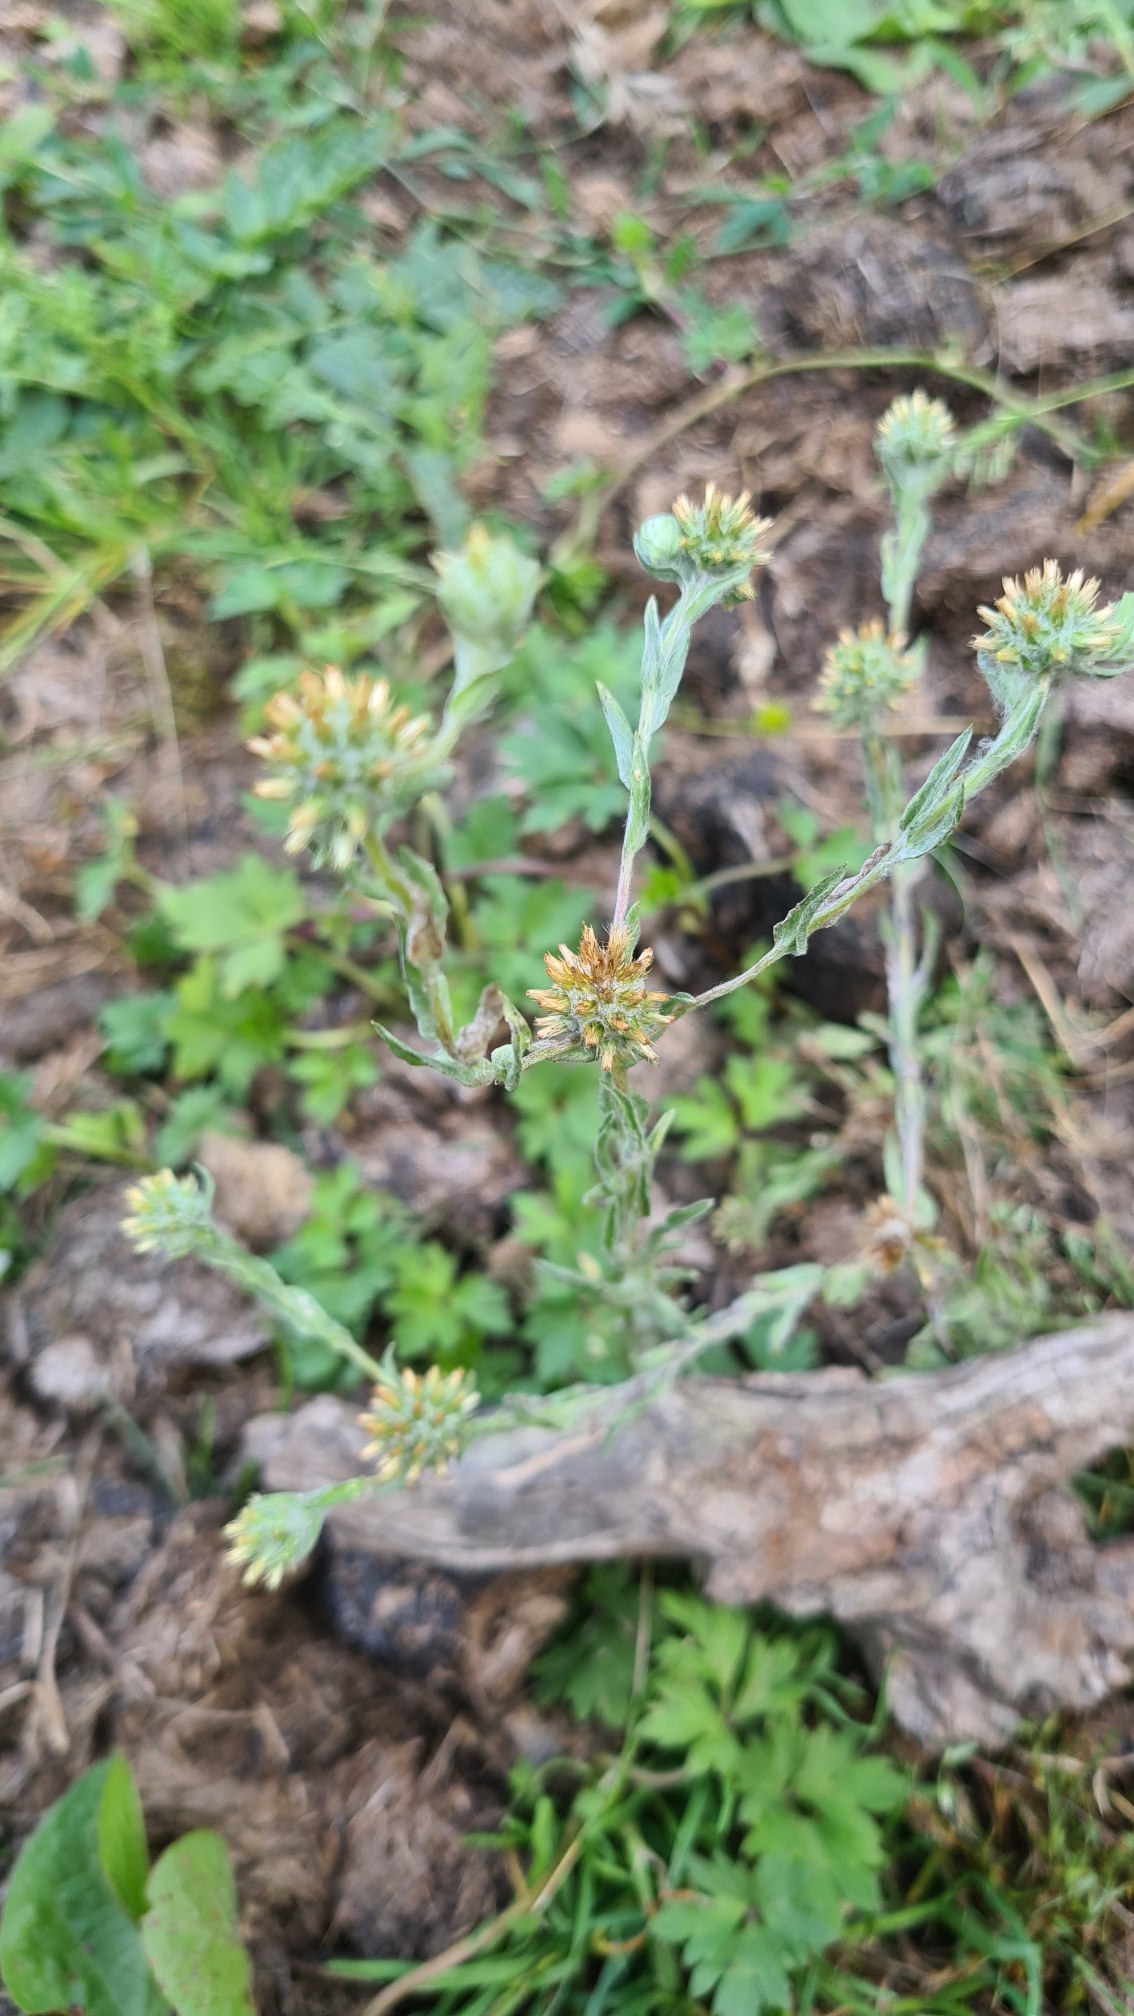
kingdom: Plantae
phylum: Tracheophyta
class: Magnoliopsida
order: Asterales
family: Asteraceae
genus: Filago
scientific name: Filago germanica
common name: Kugle-museurt
